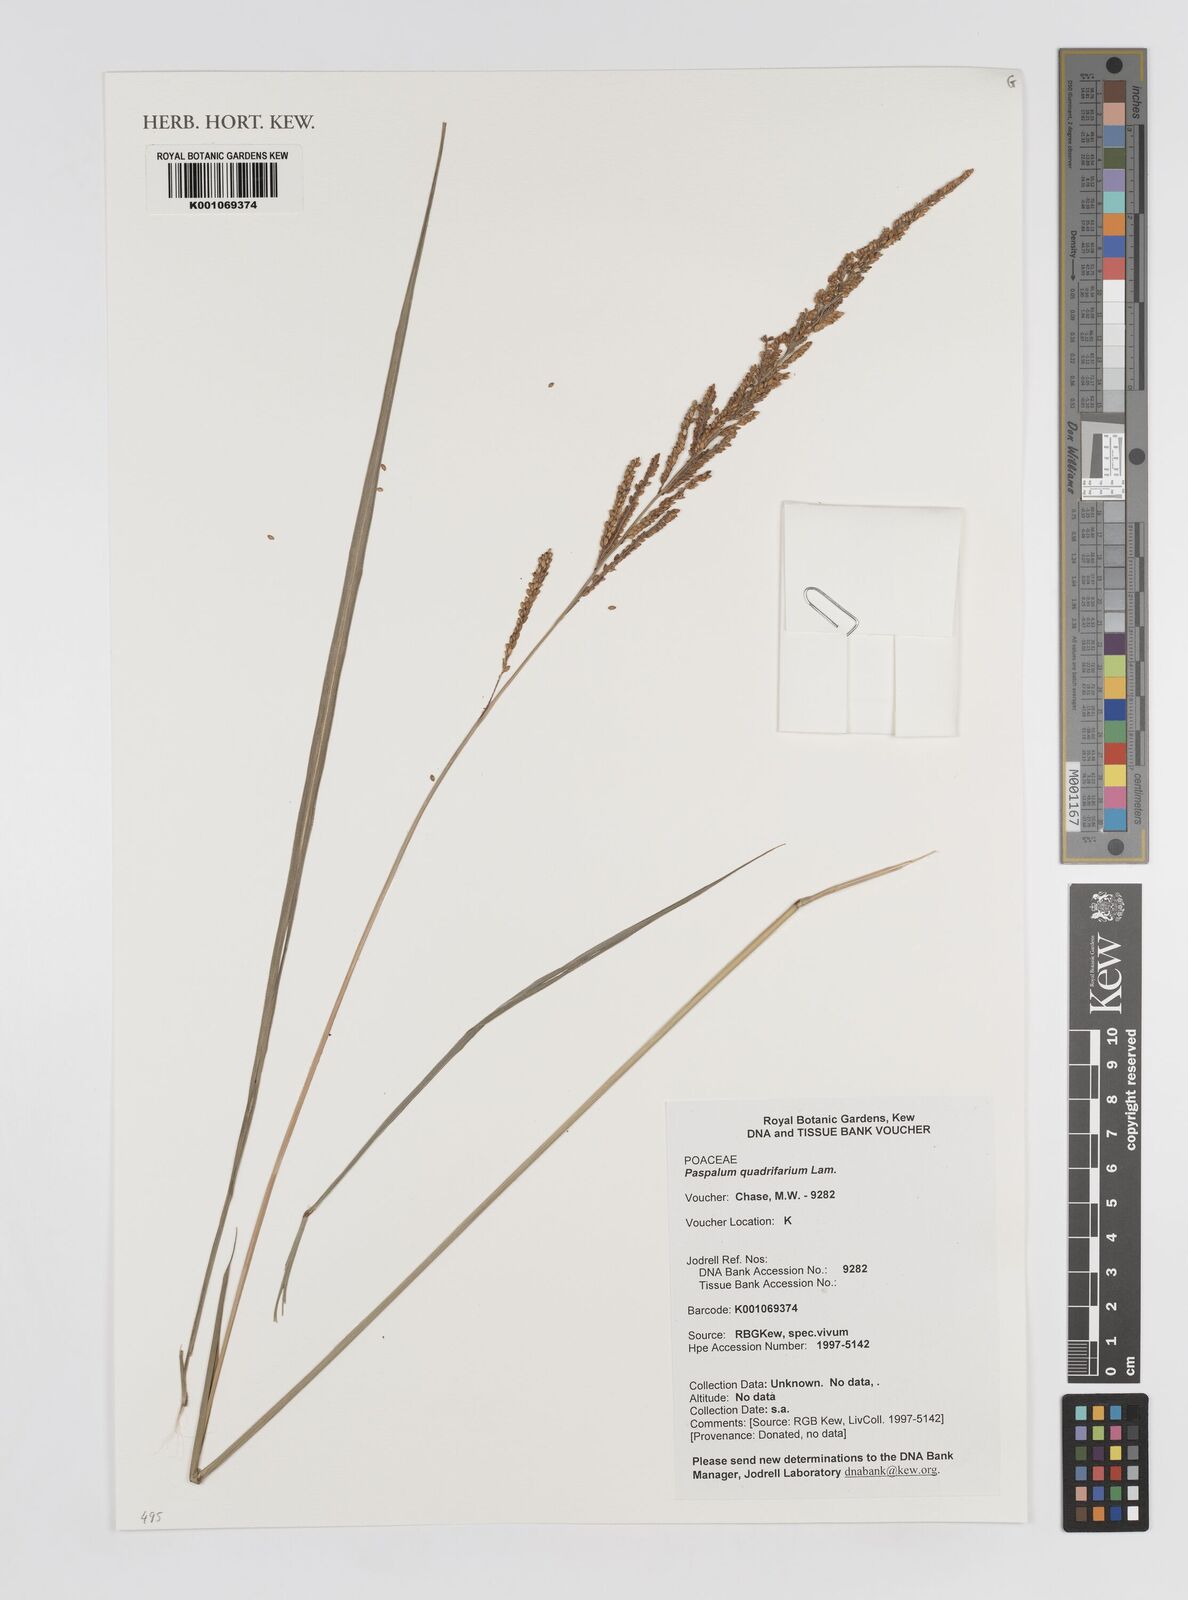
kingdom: Plantae
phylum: Tracheophyta
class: Liliopsida
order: Poales
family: Poaceae
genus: Paspalum
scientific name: Paspalum quadrifarium
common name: Tussock paspalum
